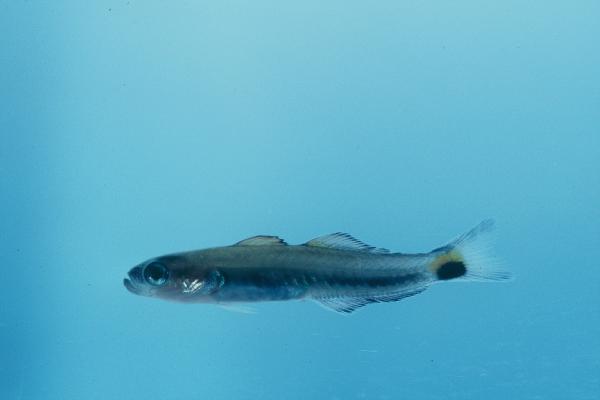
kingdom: Animalia
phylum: Chordata
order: Perciformes
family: Microdesmidae
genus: Ptereleotris
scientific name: Ptereleotris evides
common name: Blackfin dartfish
